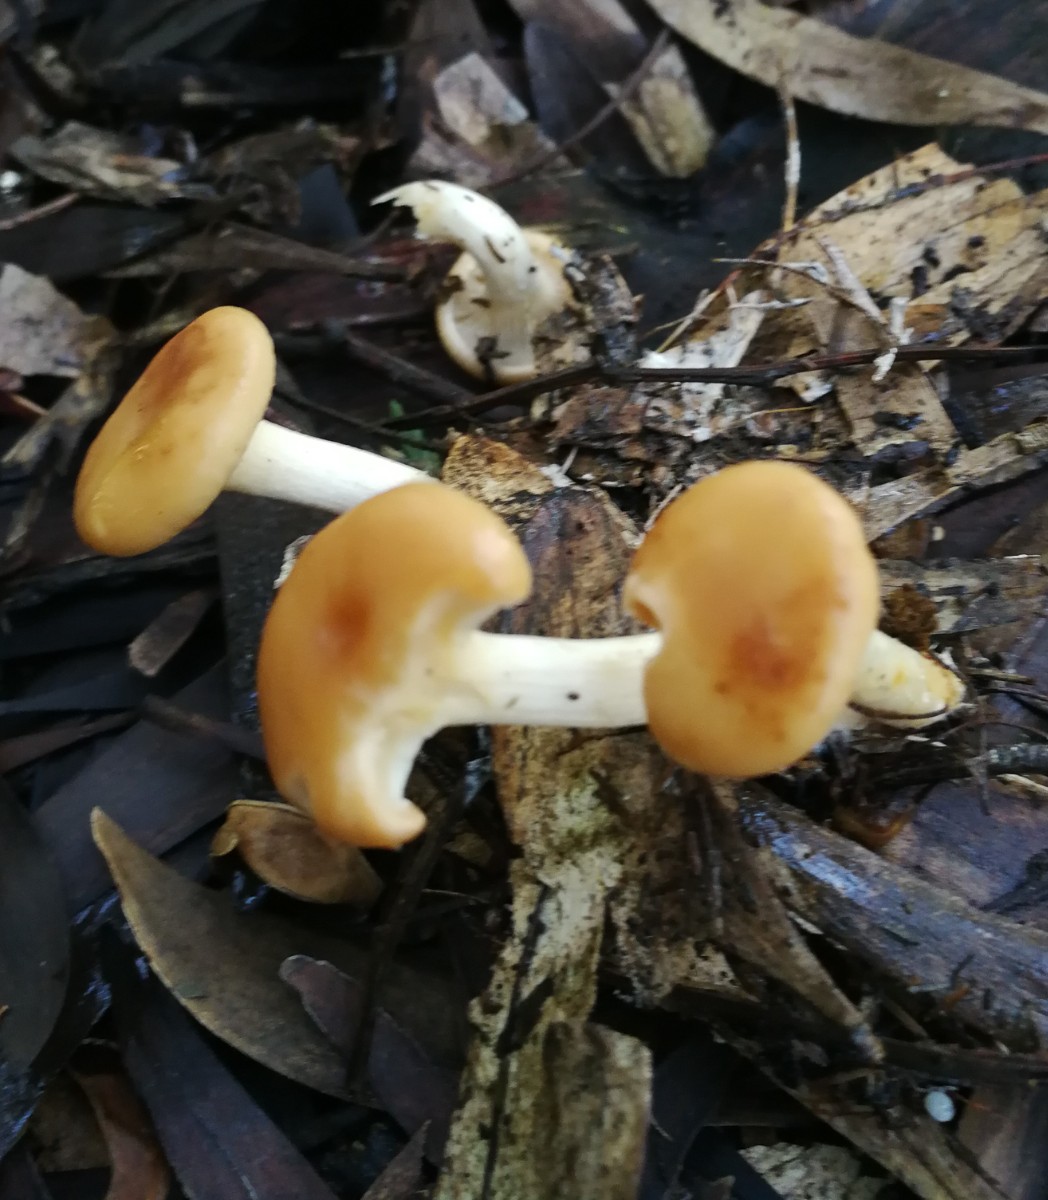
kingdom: Fungi
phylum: Basidiomycota
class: Agaricomycetes
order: Agaricales
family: Tricholomataceae
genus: Paralepista
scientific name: Paralepista flaccida
